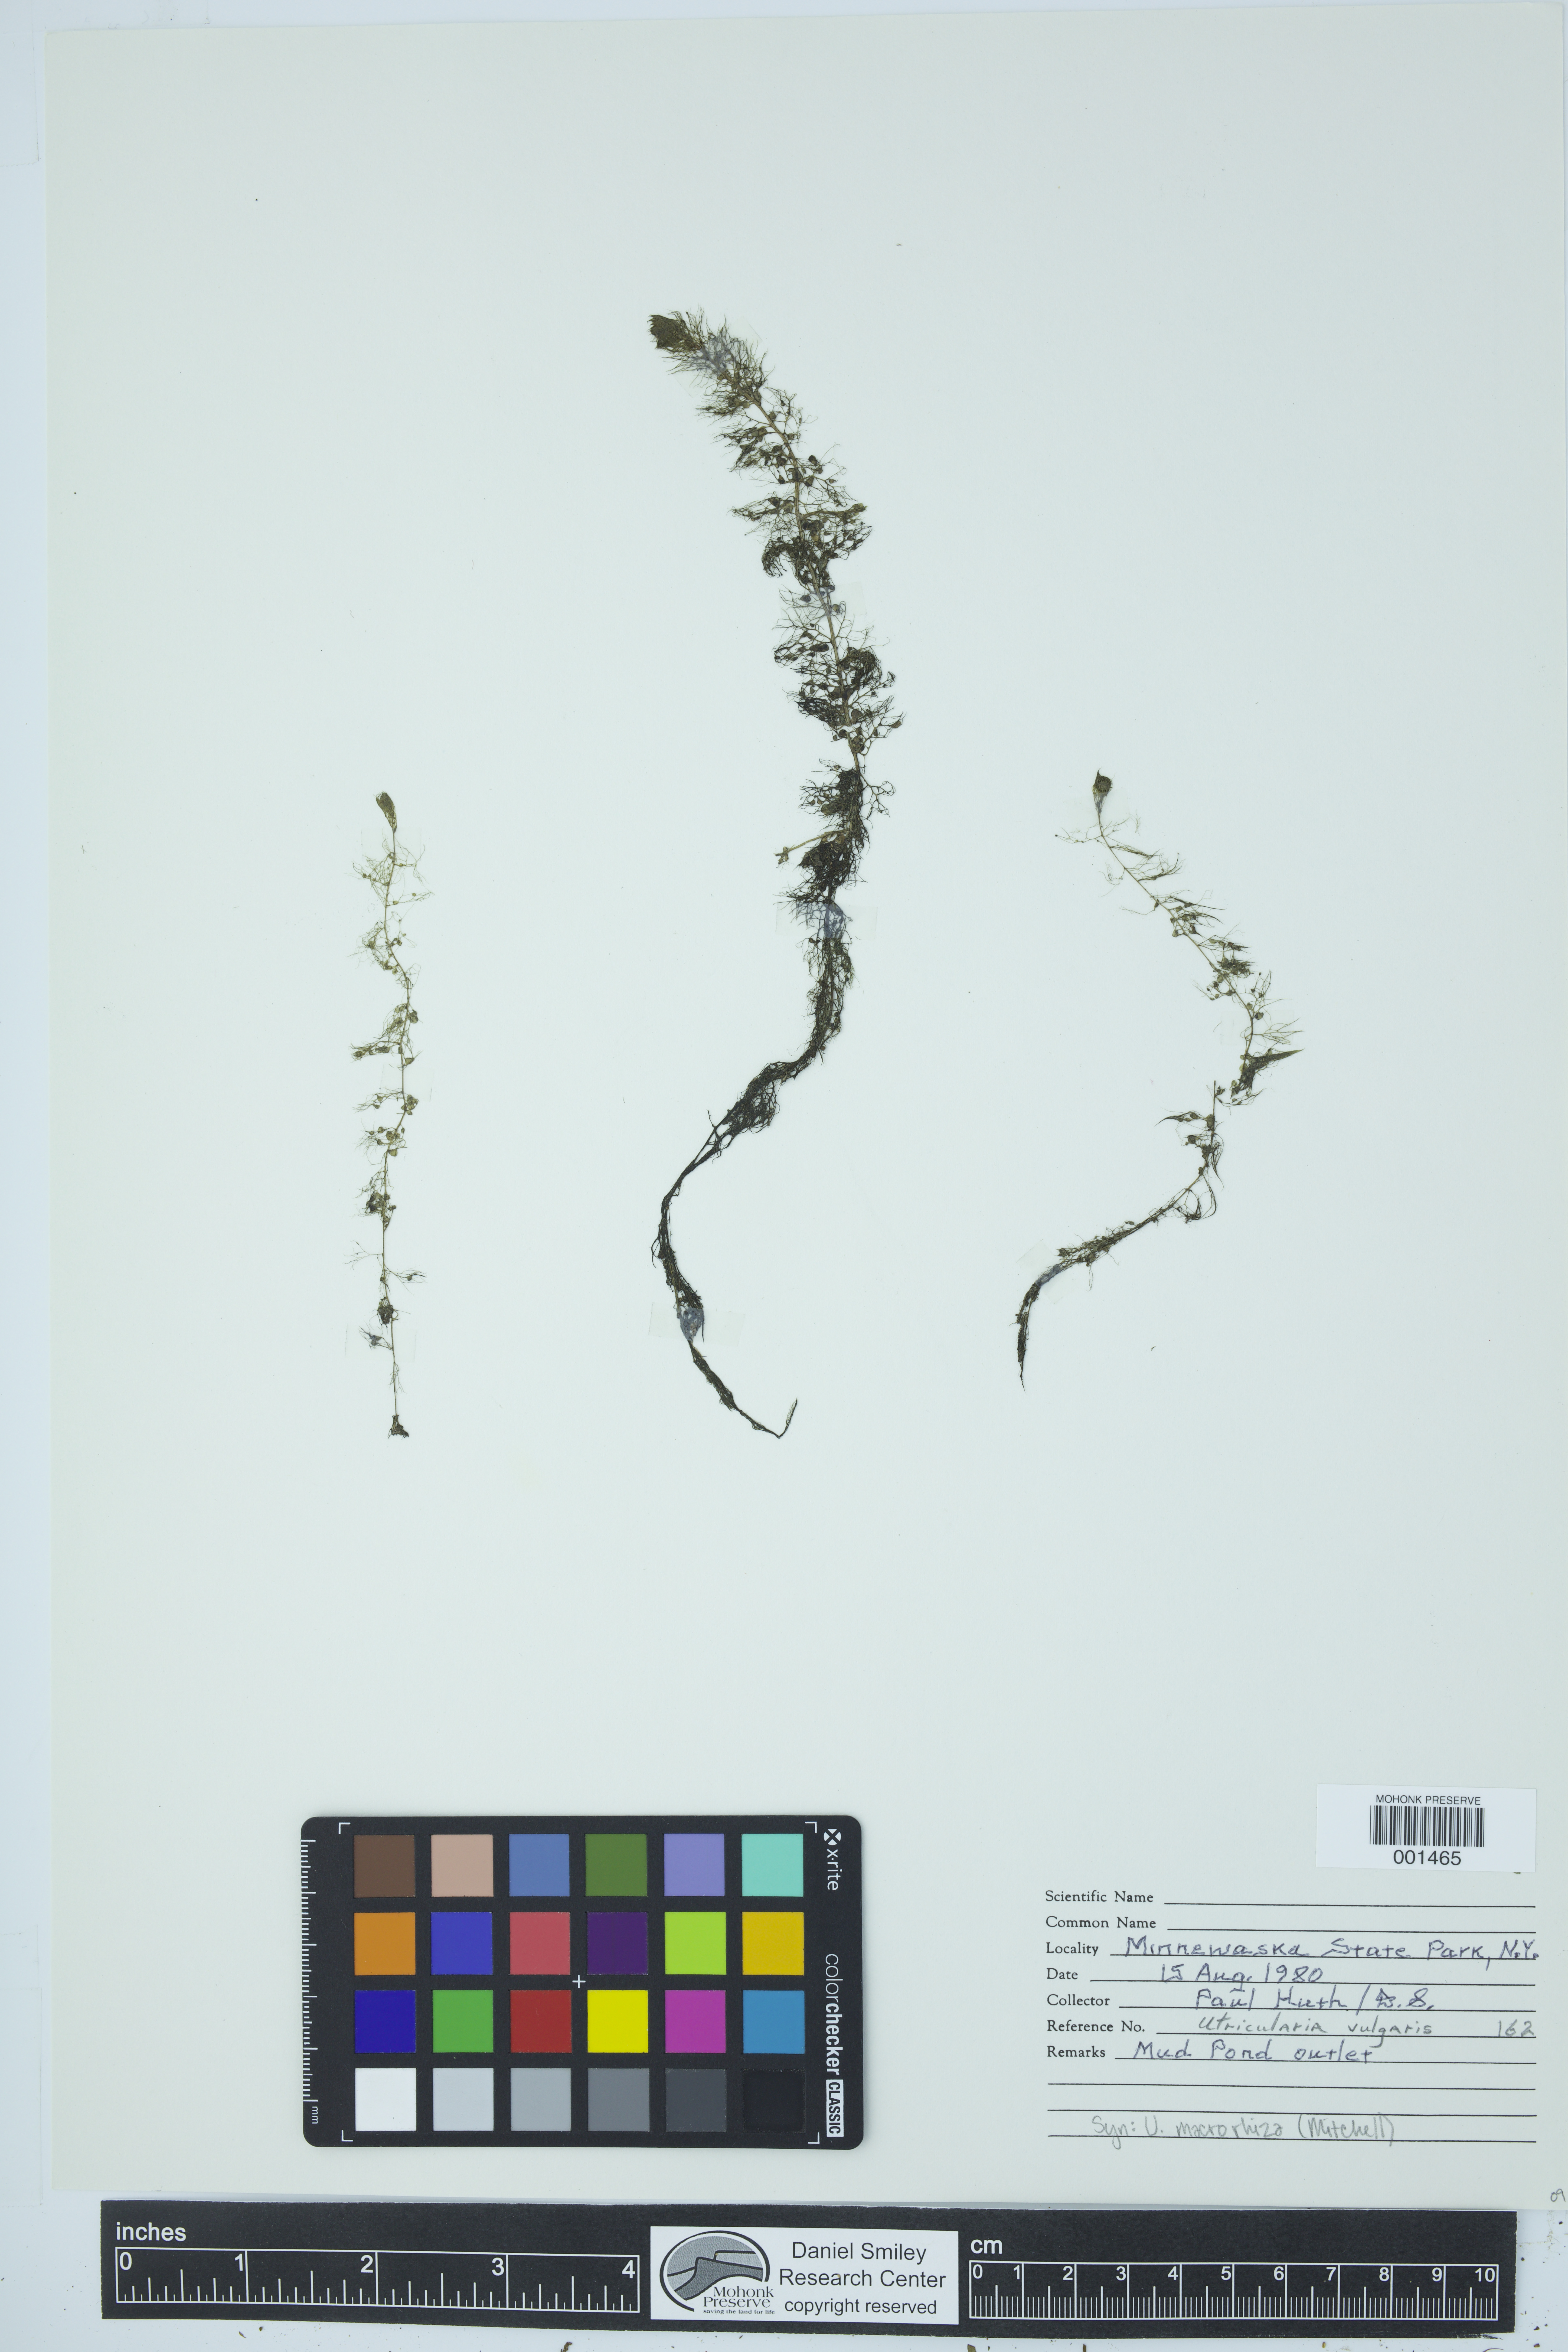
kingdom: Plantae
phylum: Tracheophyta
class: Magnoliopsida
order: Lamiales
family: Lentibulariaceae
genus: Utricularia
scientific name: Utricularia macrorhiza
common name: Common bladderwort
